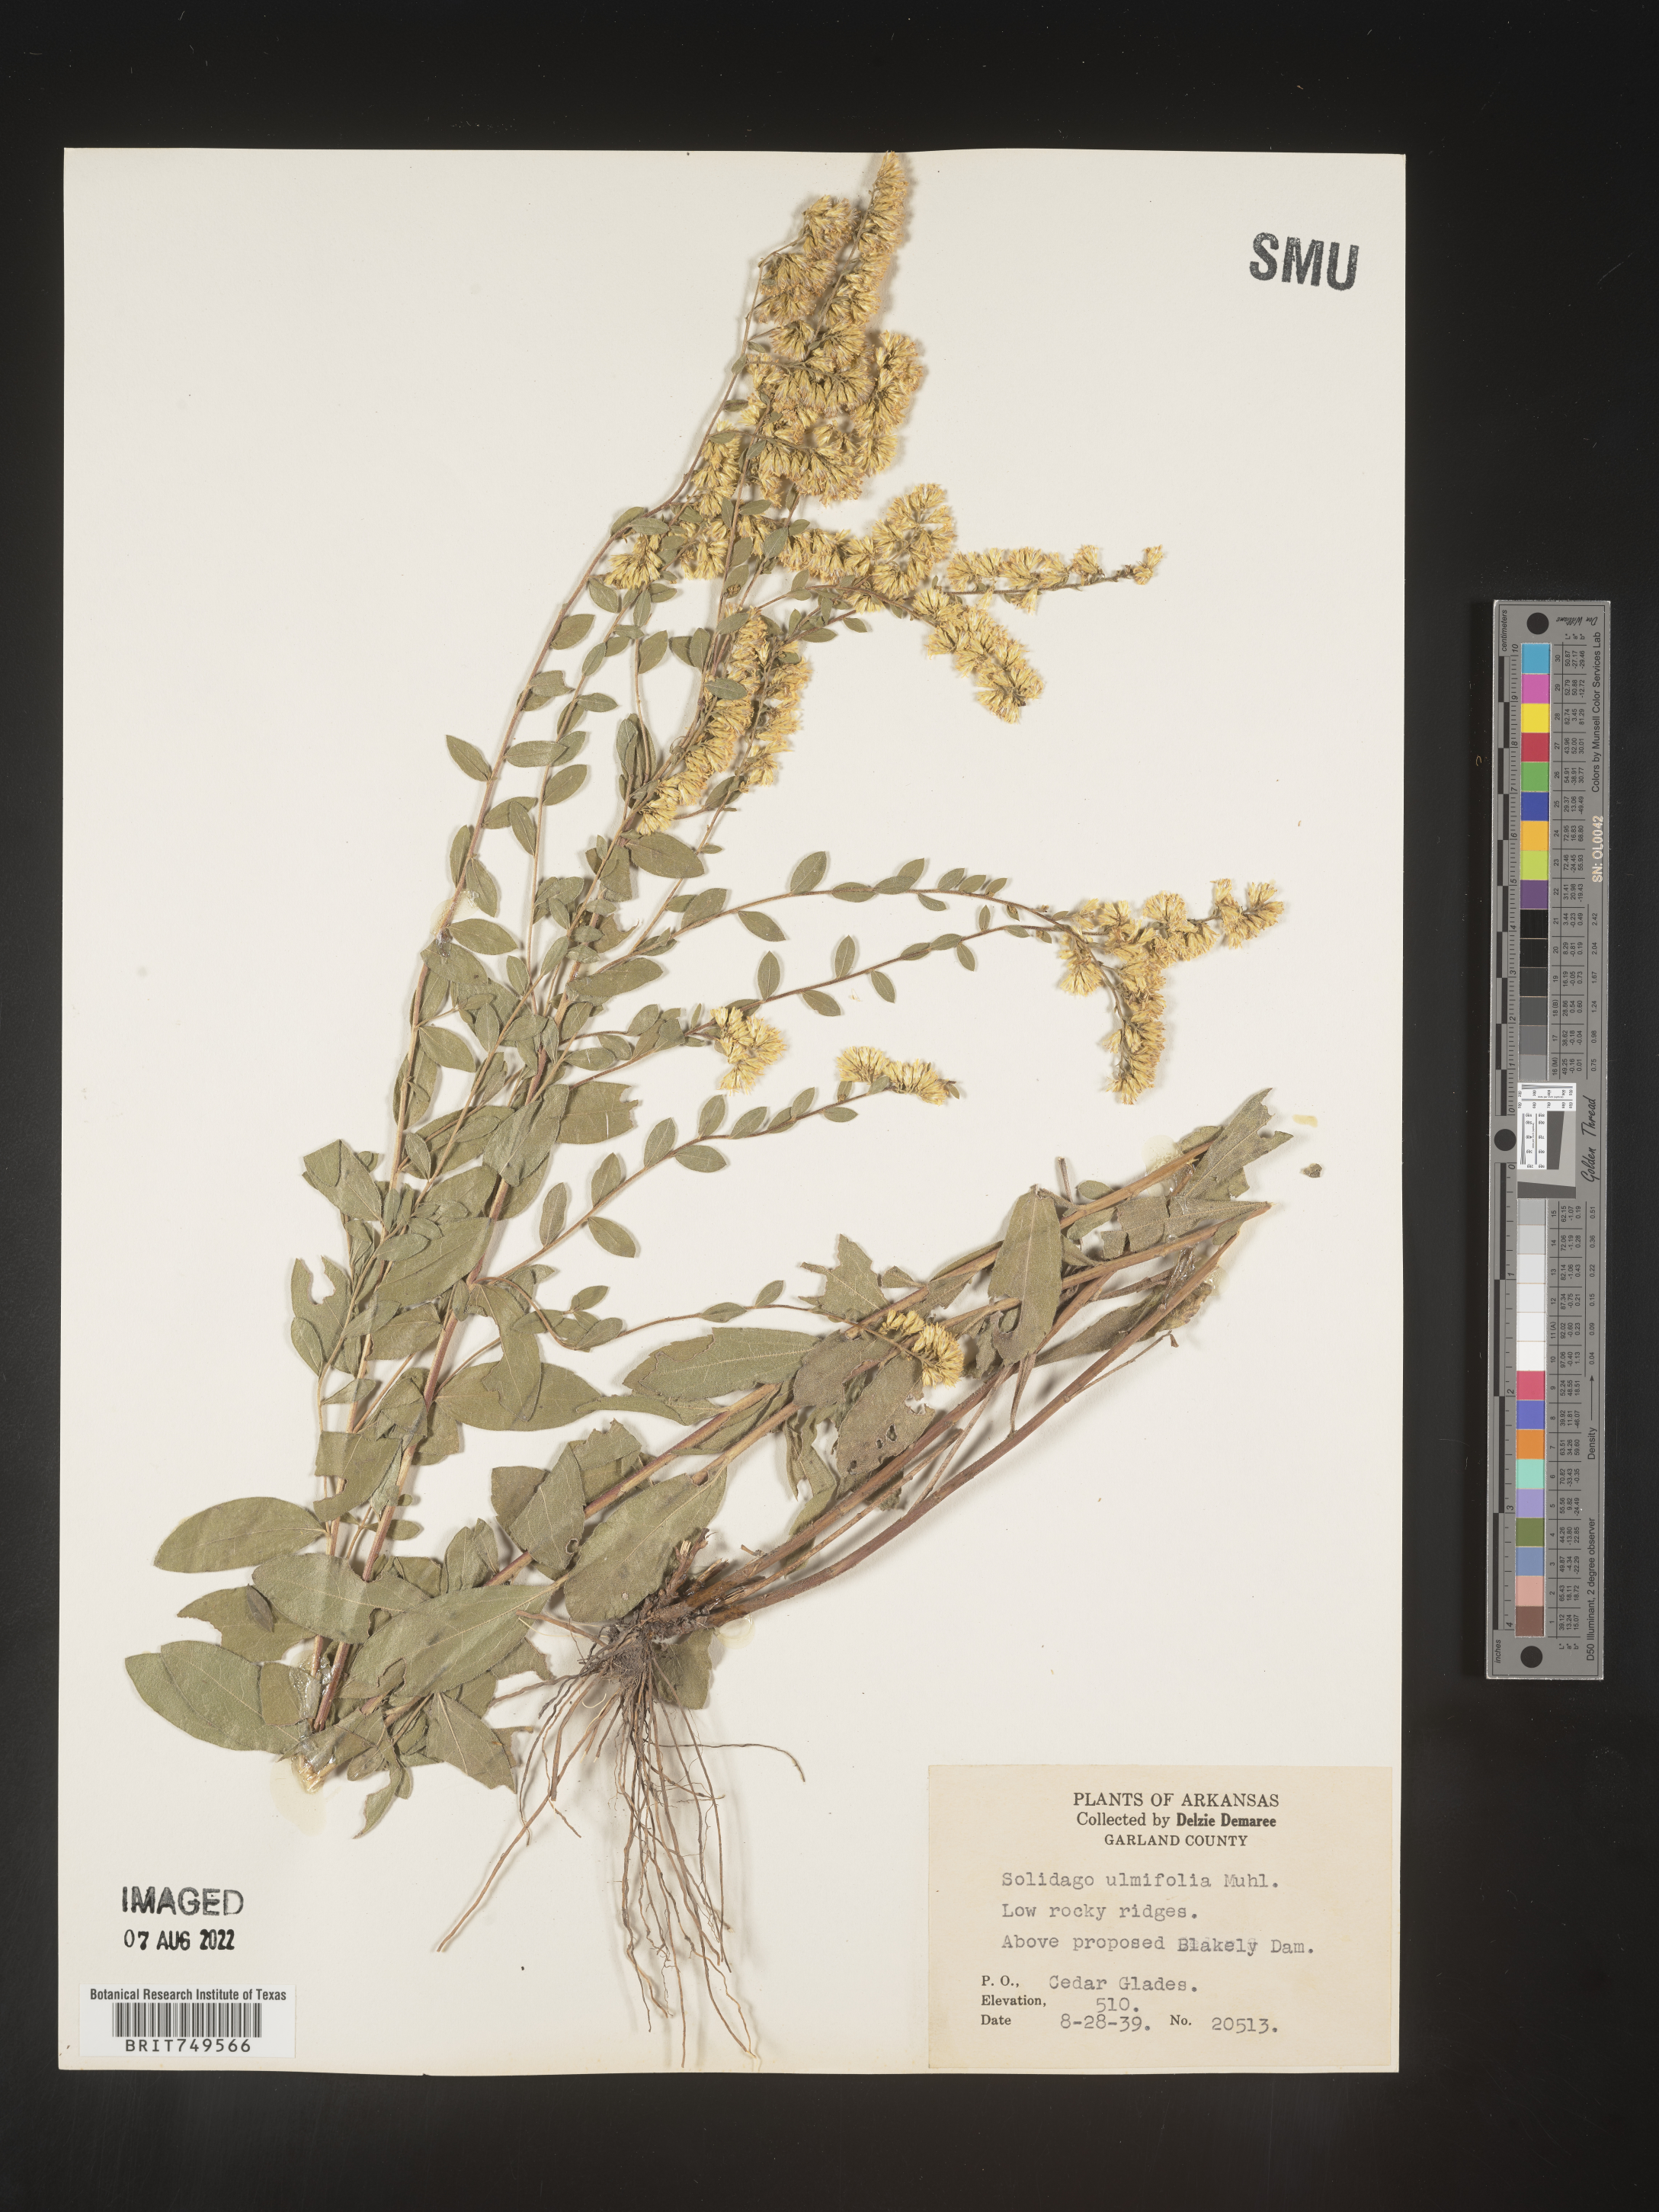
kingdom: Plantae
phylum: Tracheophyta
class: Magnoliopsida
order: Asterales
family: Asteraceae
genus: Solidago
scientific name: Solidago ulmifolia
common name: Elm-leaf goldenrod
